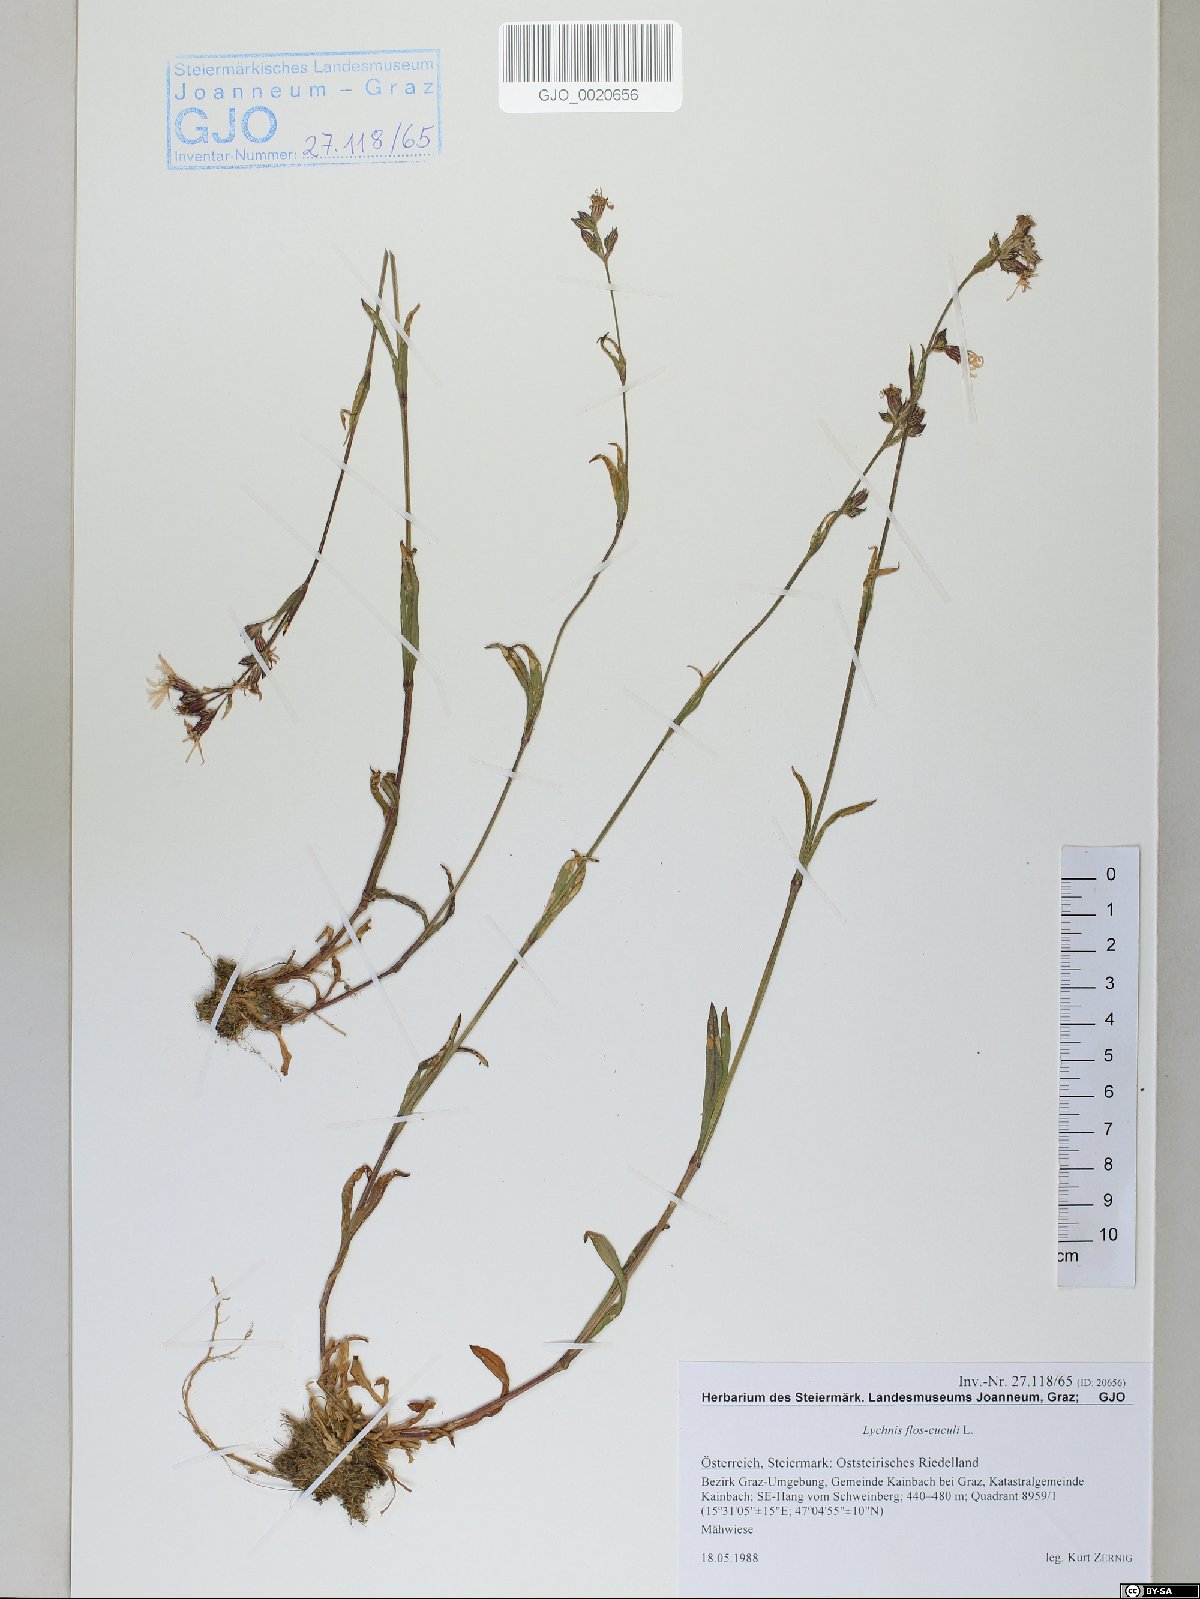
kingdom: Plantae
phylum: Tracheophyta
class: Magnoliopsida
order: Caryophyllales
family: Caryophyllaceae
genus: Silene
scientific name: Silene flos-cuculi
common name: Ragged-robin
